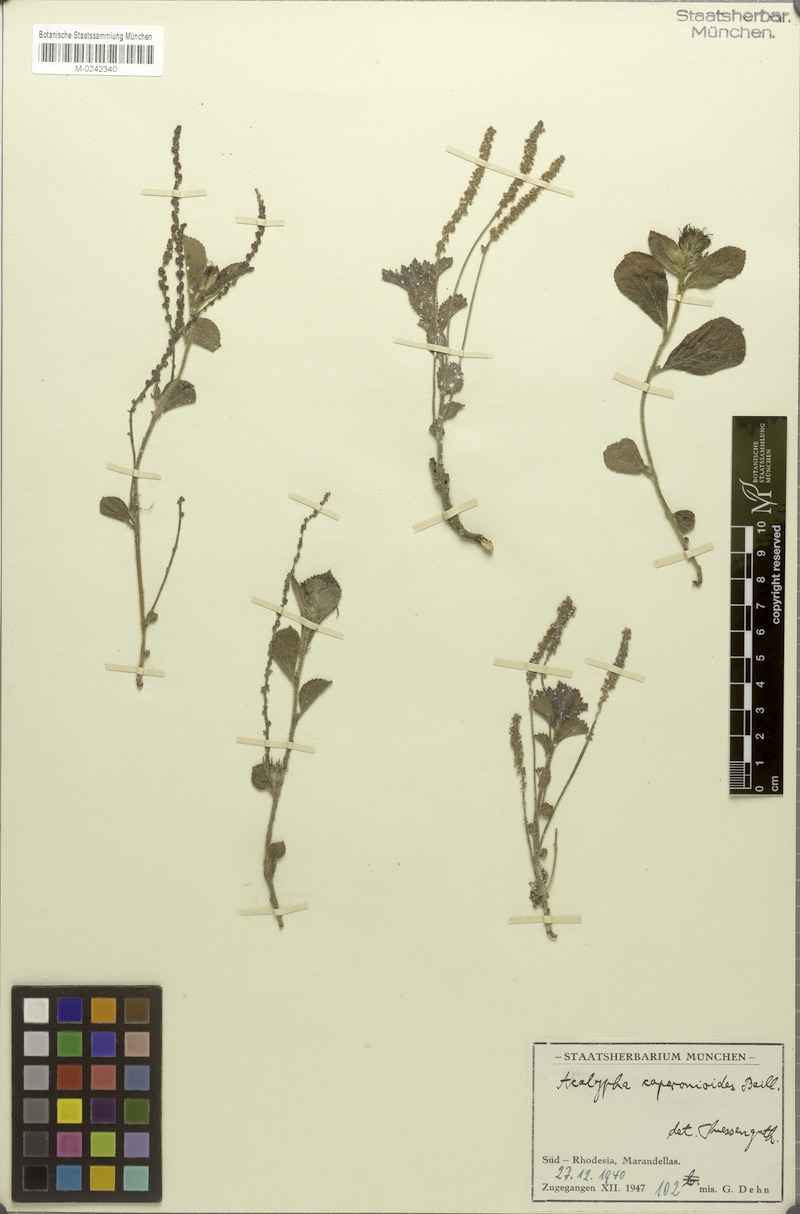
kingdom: Plantae
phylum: Tracheophyta
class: Magnoliopsida
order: Malpighiales
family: Euphorbiaceae
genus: Acalypha
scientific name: Acalypha caperonioides
